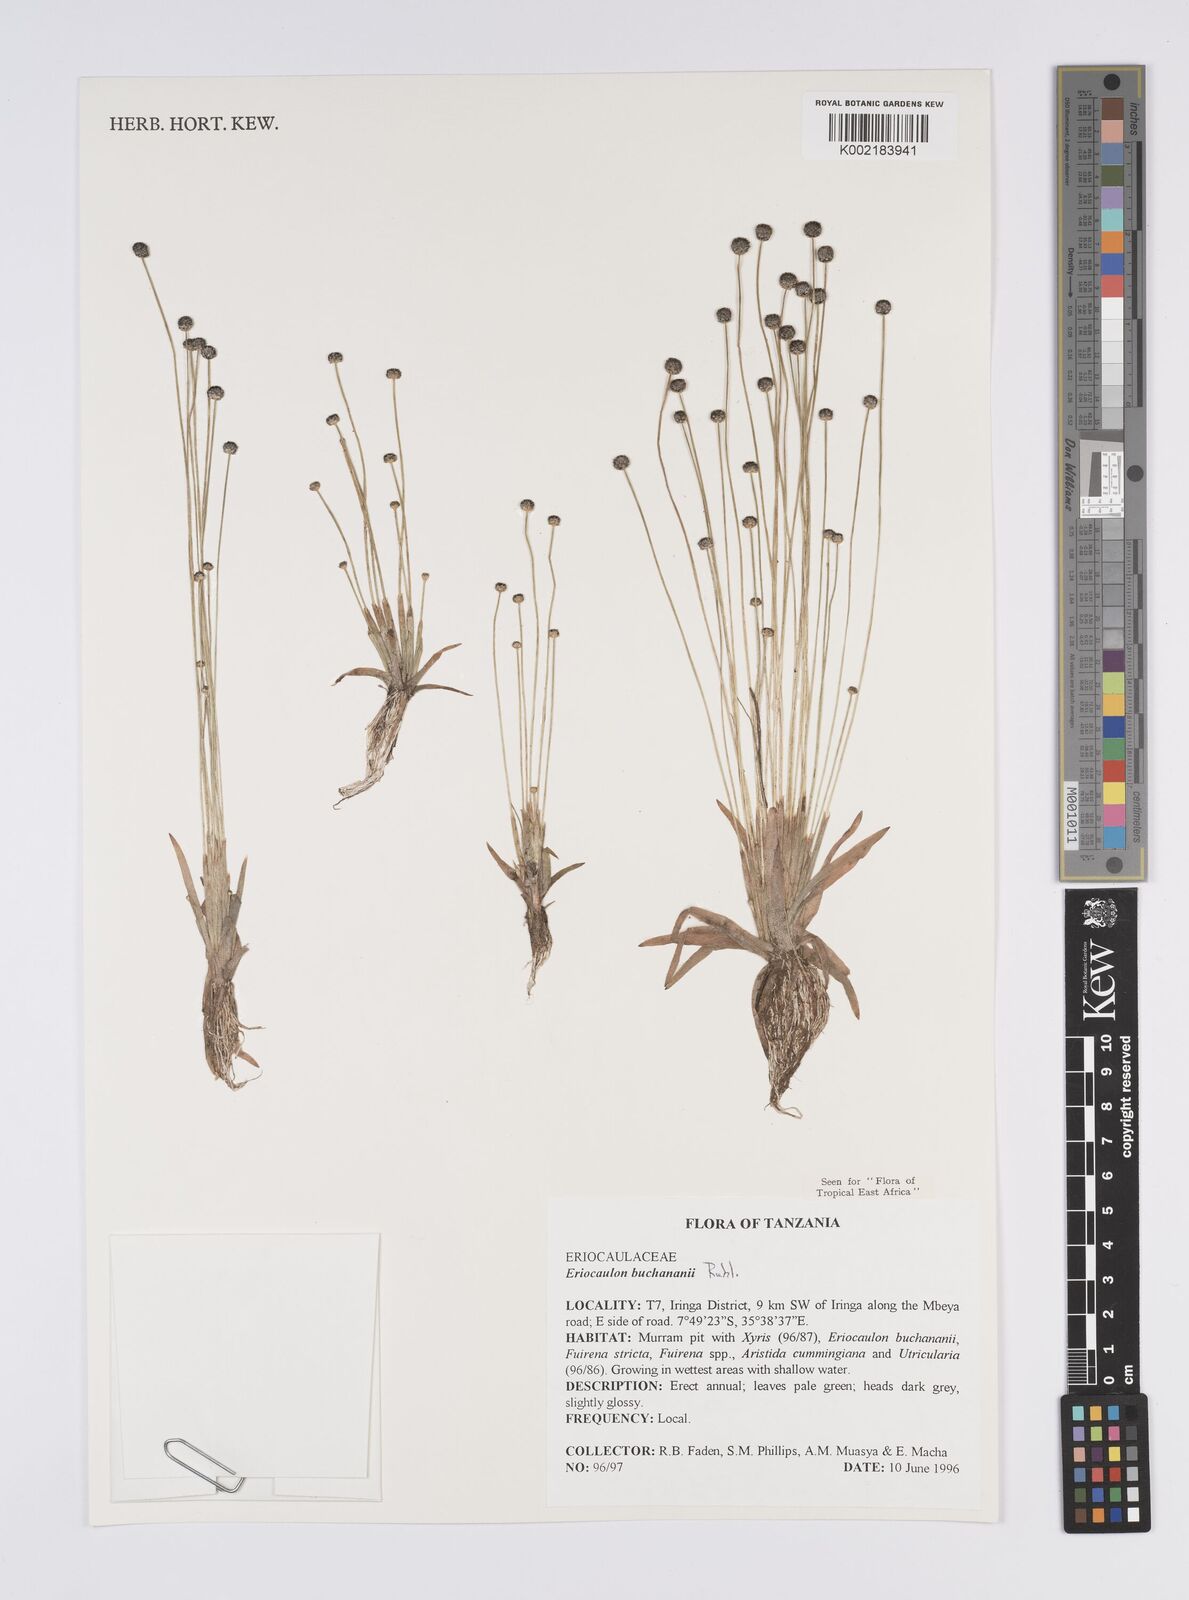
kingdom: Plantae
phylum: Tracheophyta
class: Liliopsida
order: Poales
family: Eriocaulaceae
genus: Eriocaulon
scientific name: Eriocaulon buchananii
